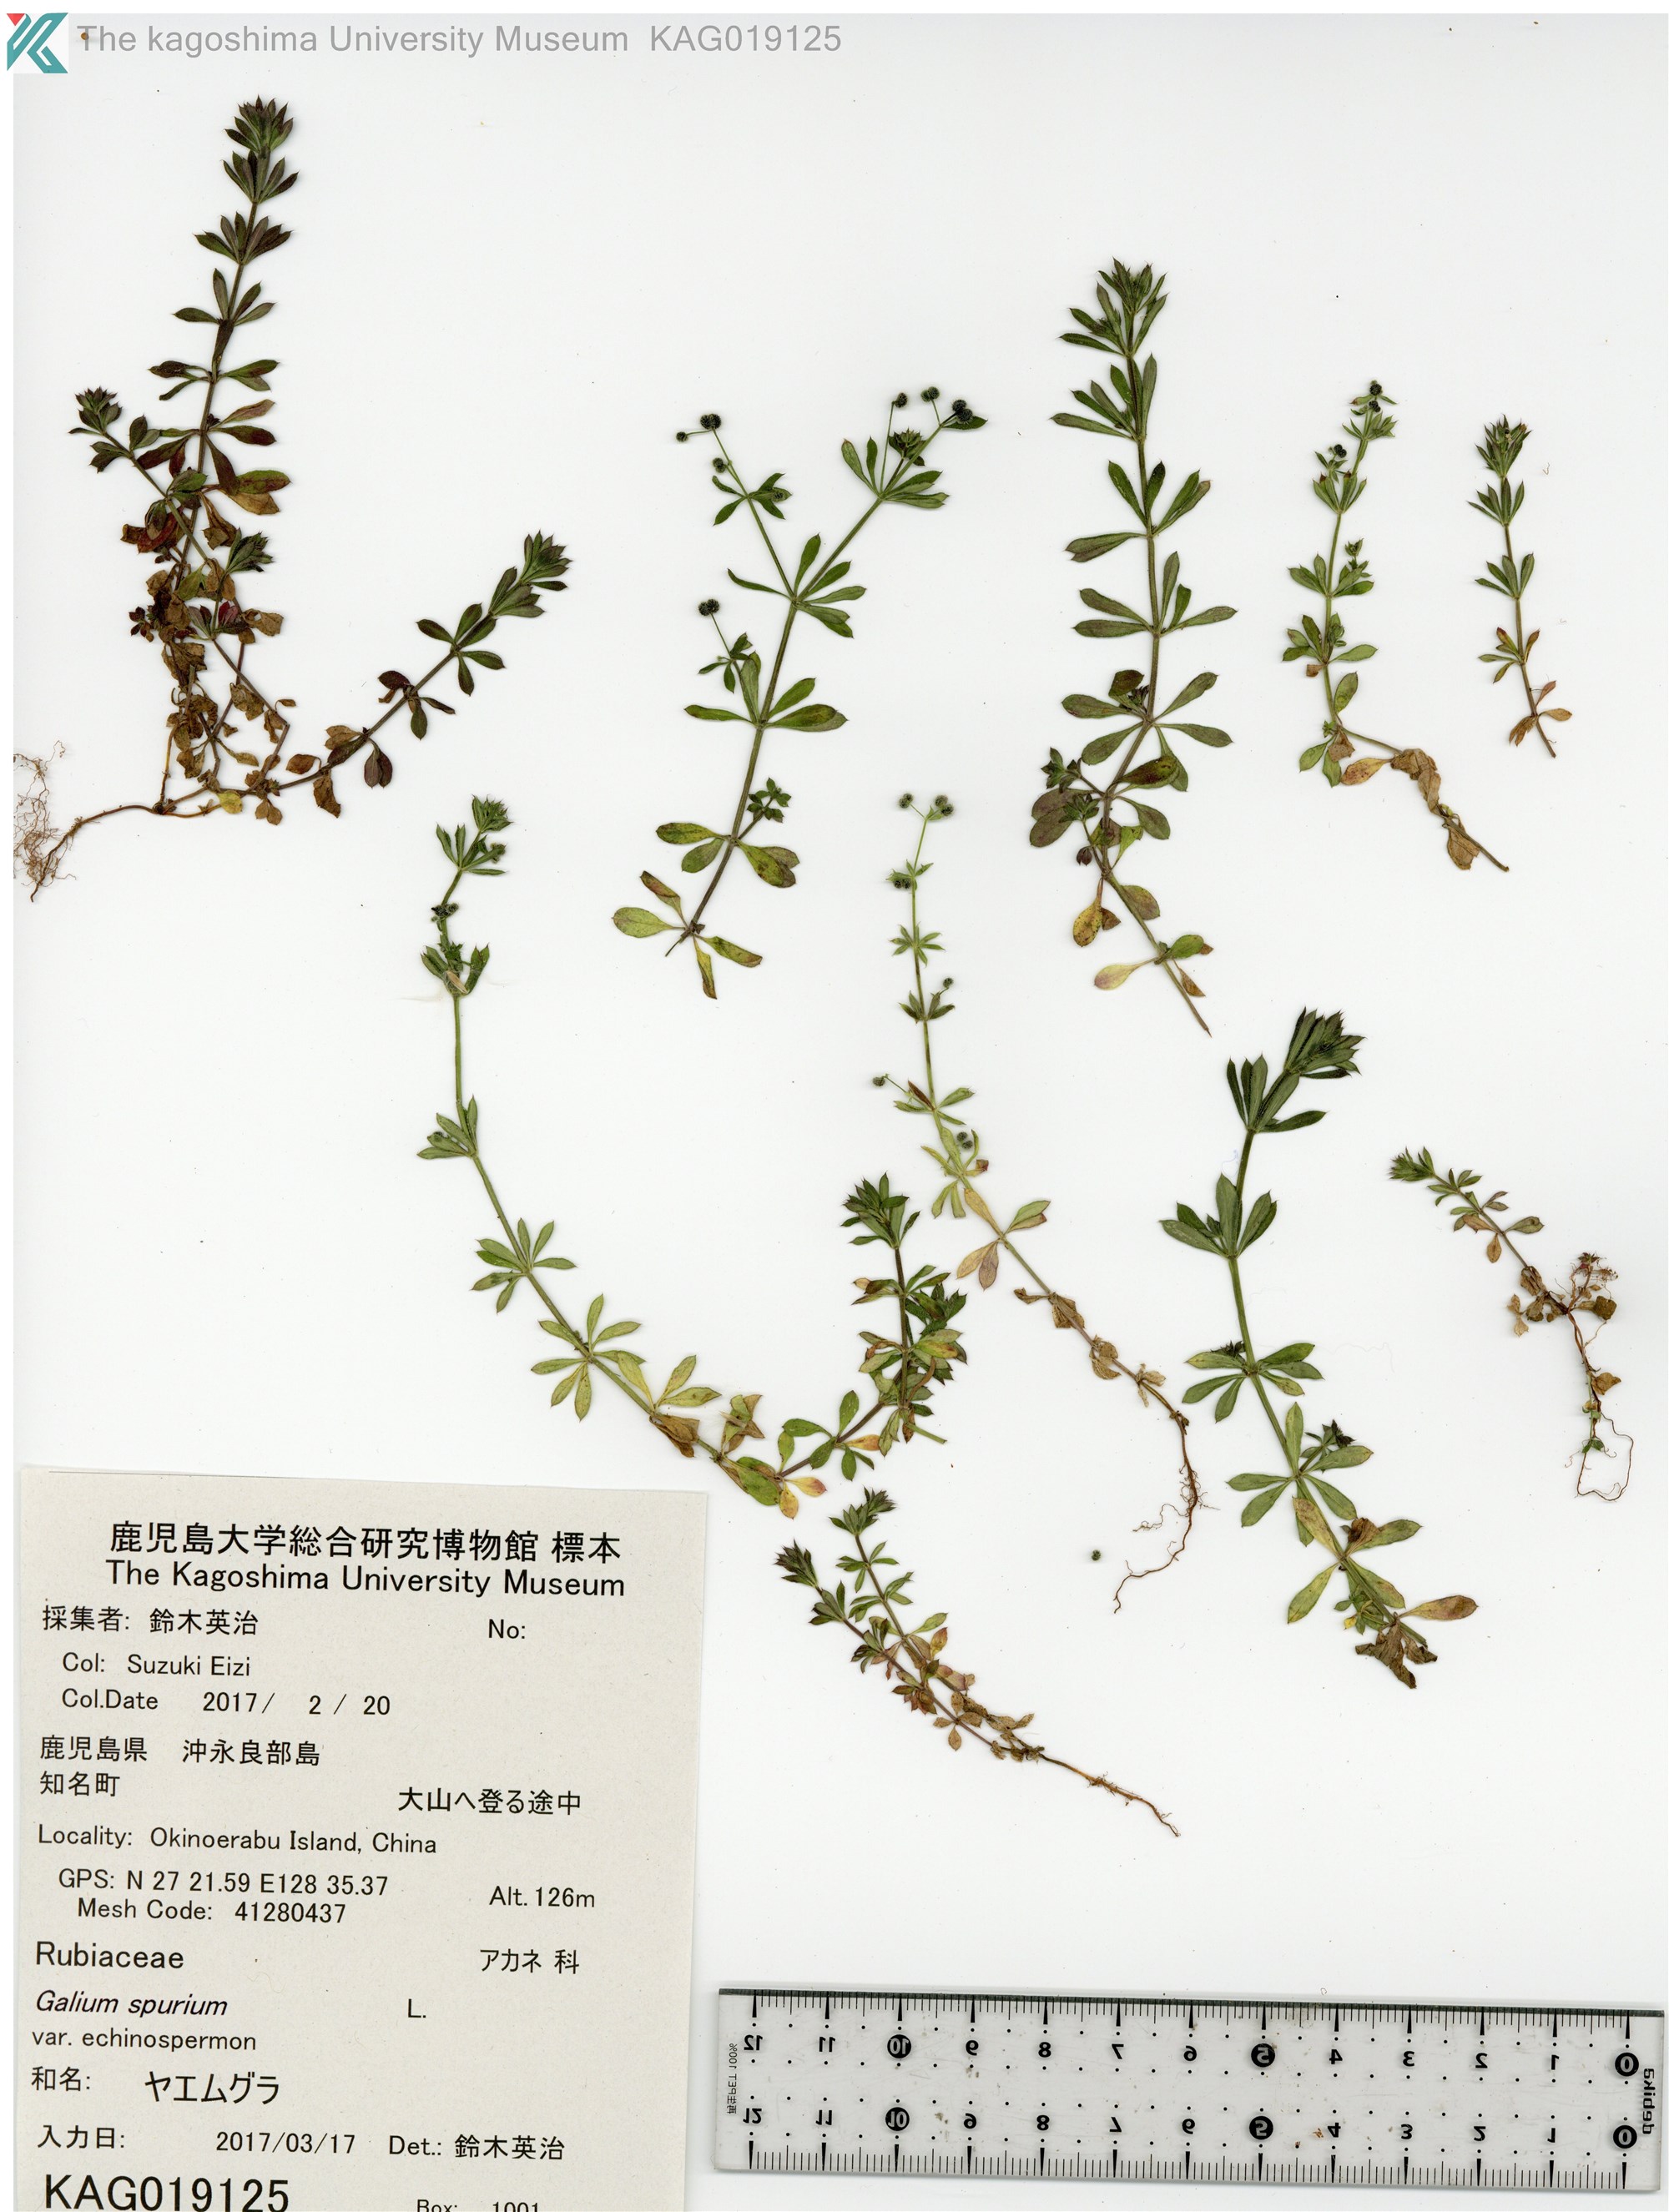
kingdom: Plantae
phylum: Tracheophyta
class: Magnoliopsida
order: Gentianales
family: Rubiaceae
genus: Galium
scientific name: Galium
